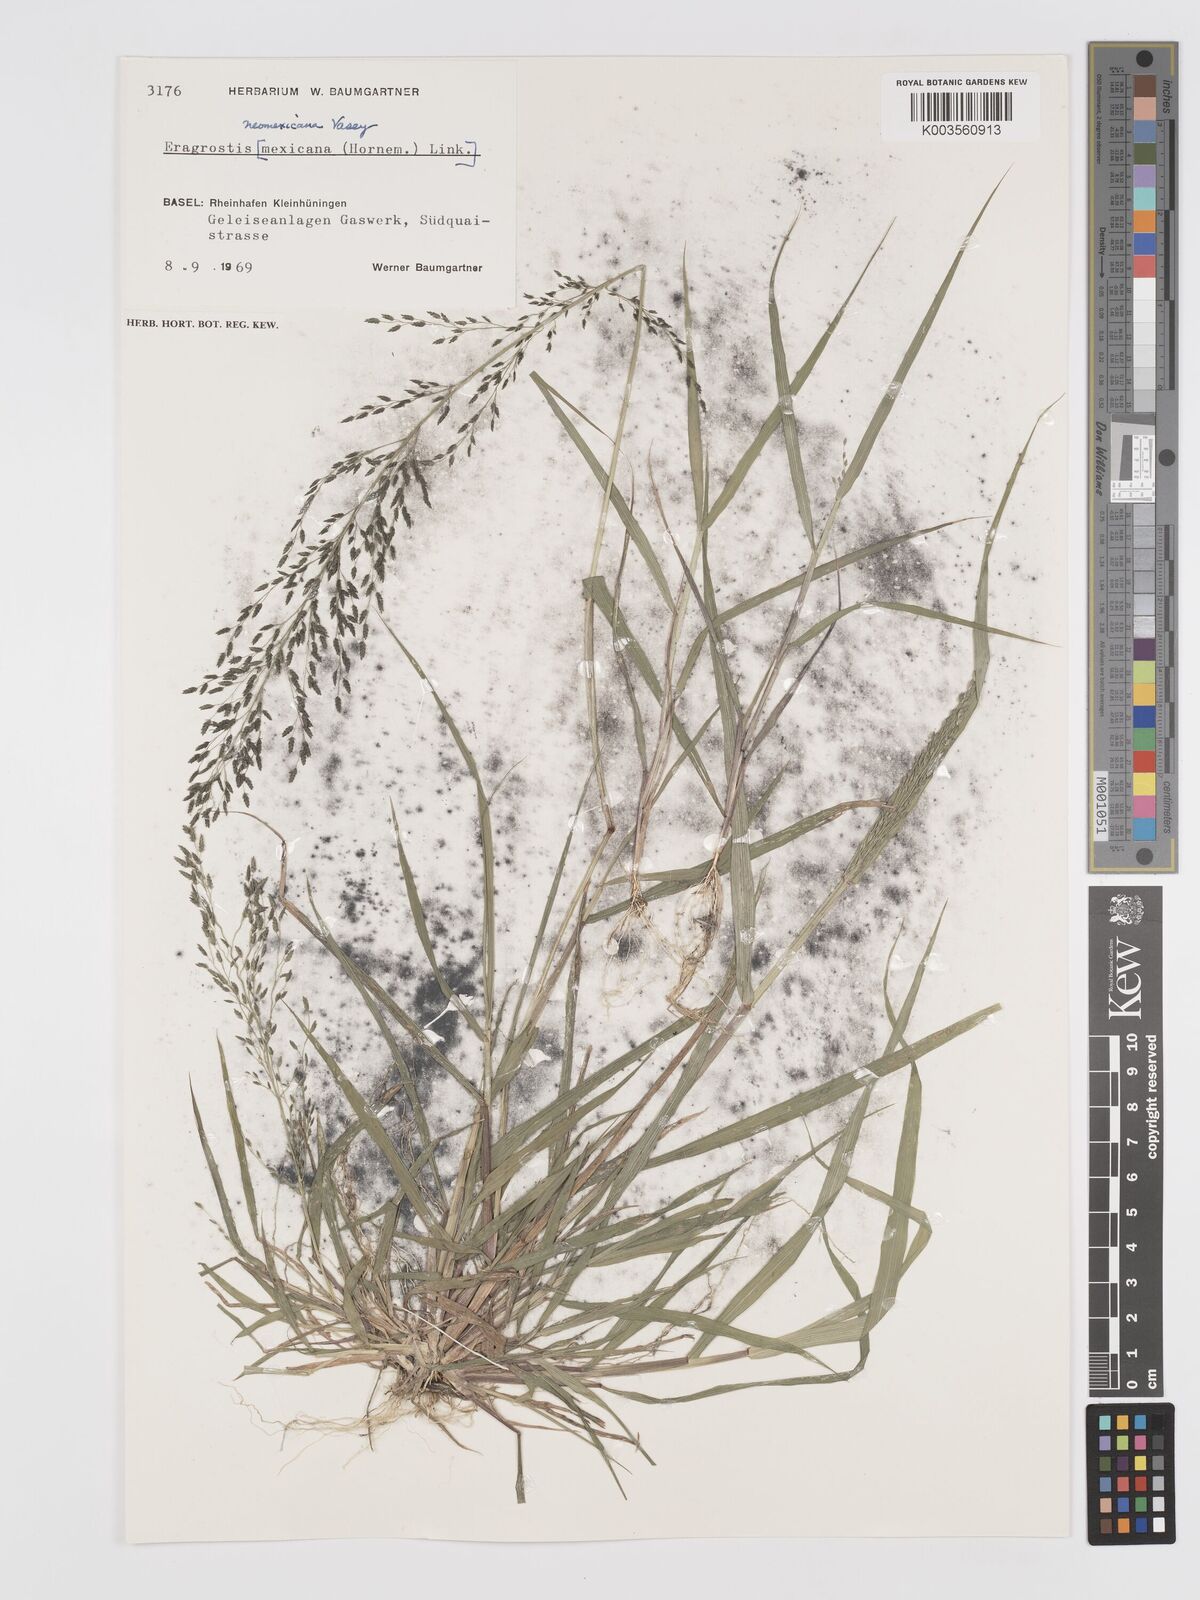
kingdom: Plantae
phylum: Tracheophyta
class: Liliopsida
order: Poales
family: Poaceae
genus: Eragrostis
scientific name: Eragrostis mexicana
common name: Mexican love grass
